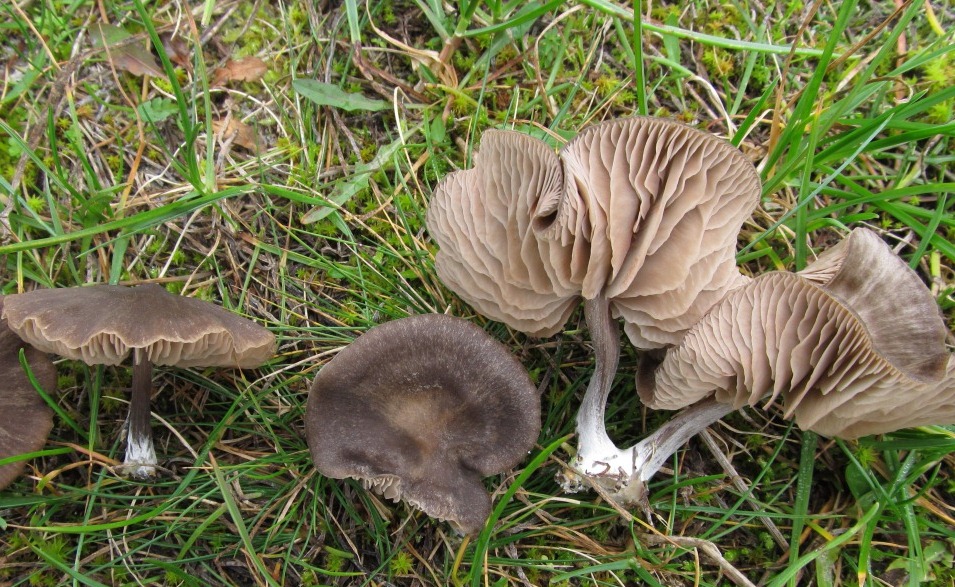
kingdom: Fungi
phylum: Basidiomycota
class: Agaricomycetes
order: Agaricales
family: Entolomataceae
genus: Entoloma
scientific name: Entoloma sericeum
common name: silkeglinsende rødblad
